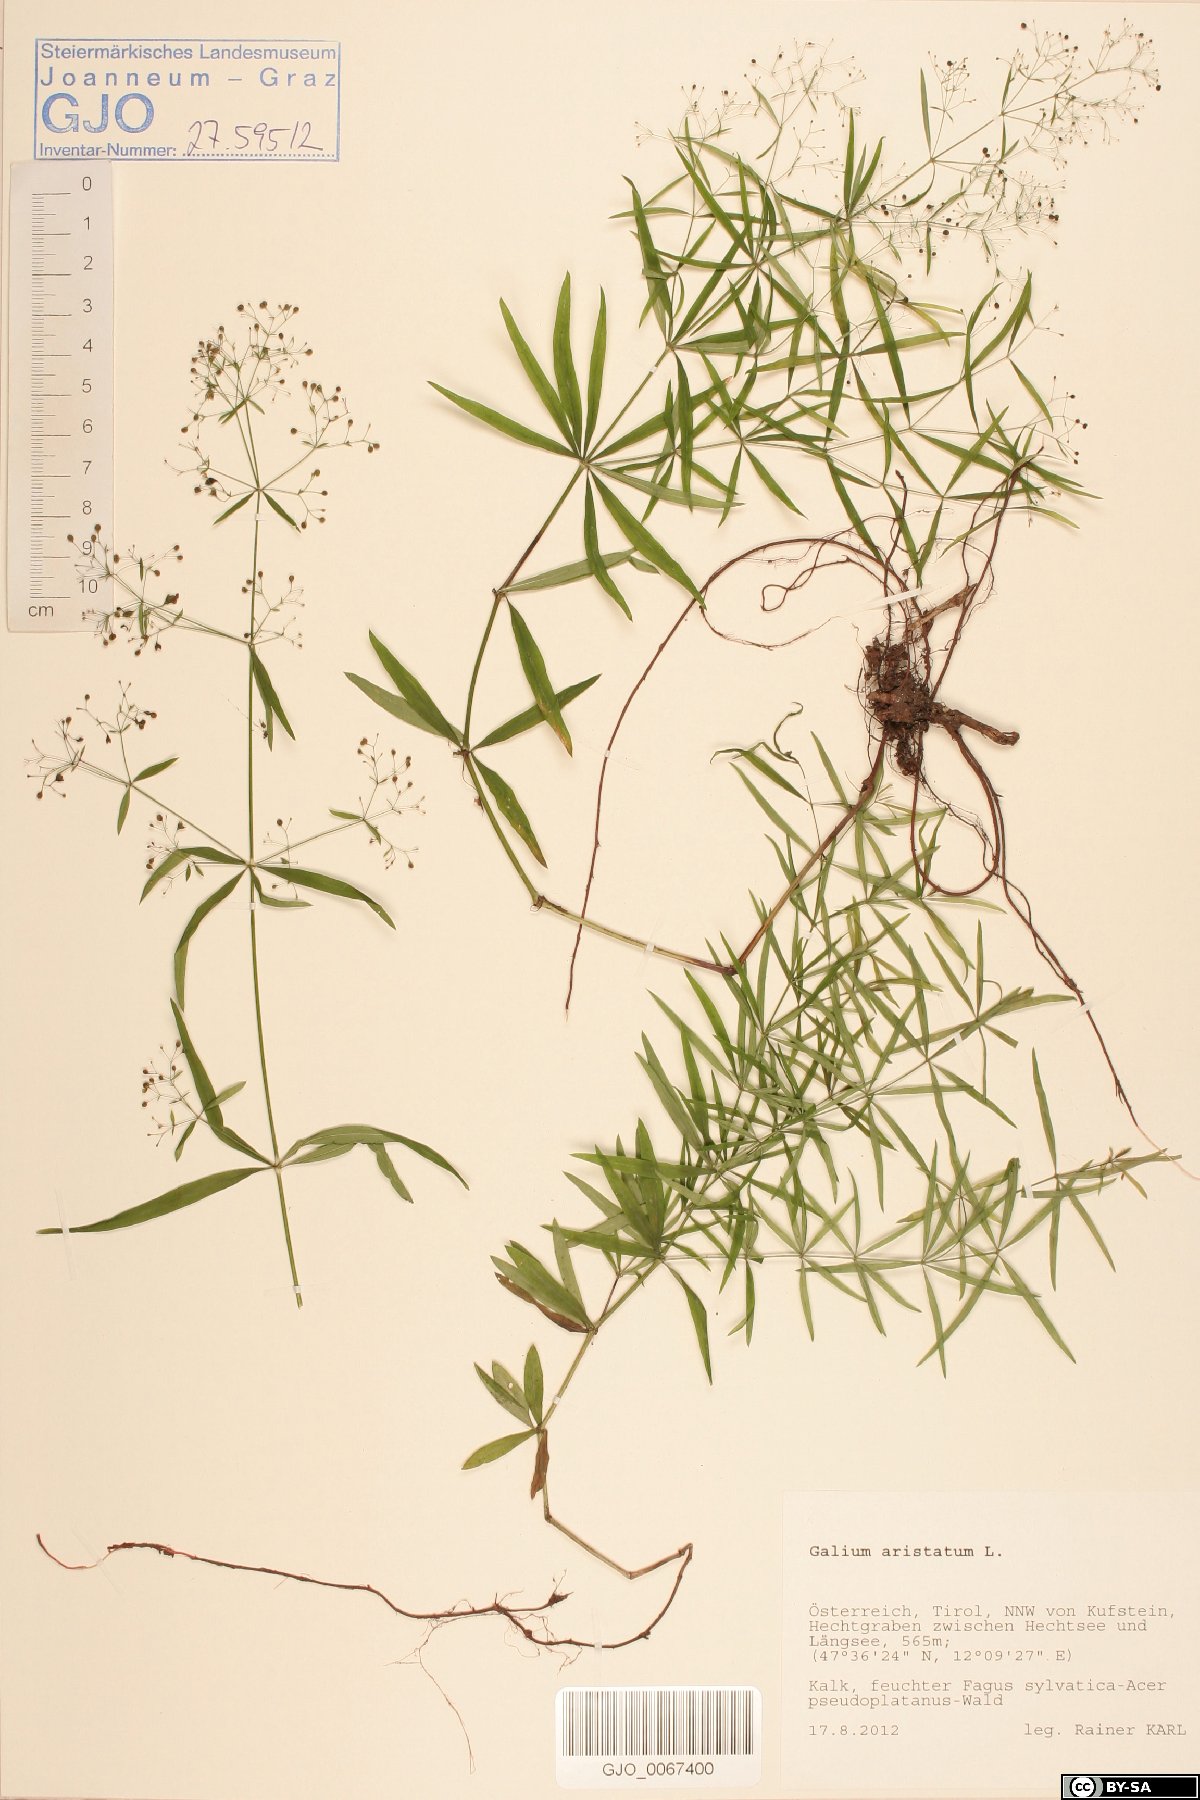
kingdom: Plantae
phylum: Tracheophyta
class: Magnoliopsida
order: Gentianales
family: Rubiaceae
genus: Galium
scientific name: Galium aristatum
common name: Awned bedstraw
